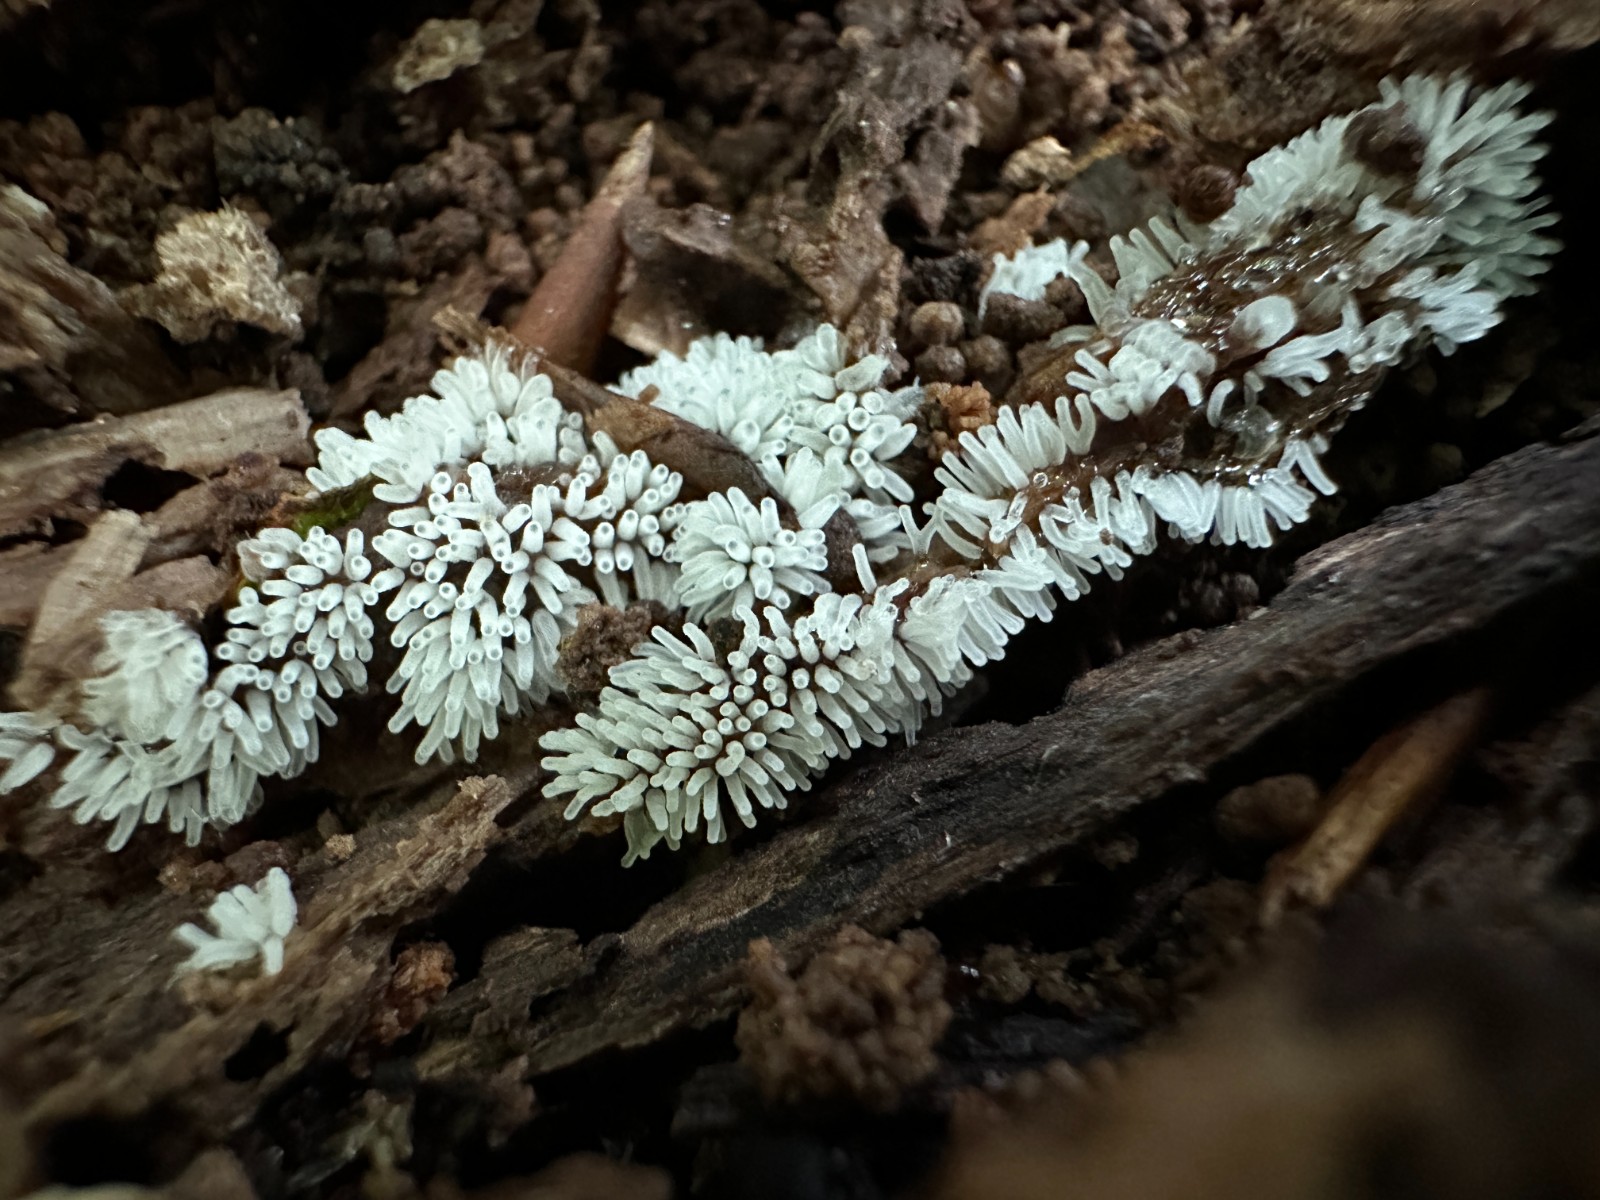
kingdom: Protozoa
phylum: Mycetozoa
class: Protosteliomycetes
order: Ceratiomyxales
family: Ceratiomyxaceae
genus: Ceratiomyxa
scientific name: Ceratiomyxa fruticulosa
